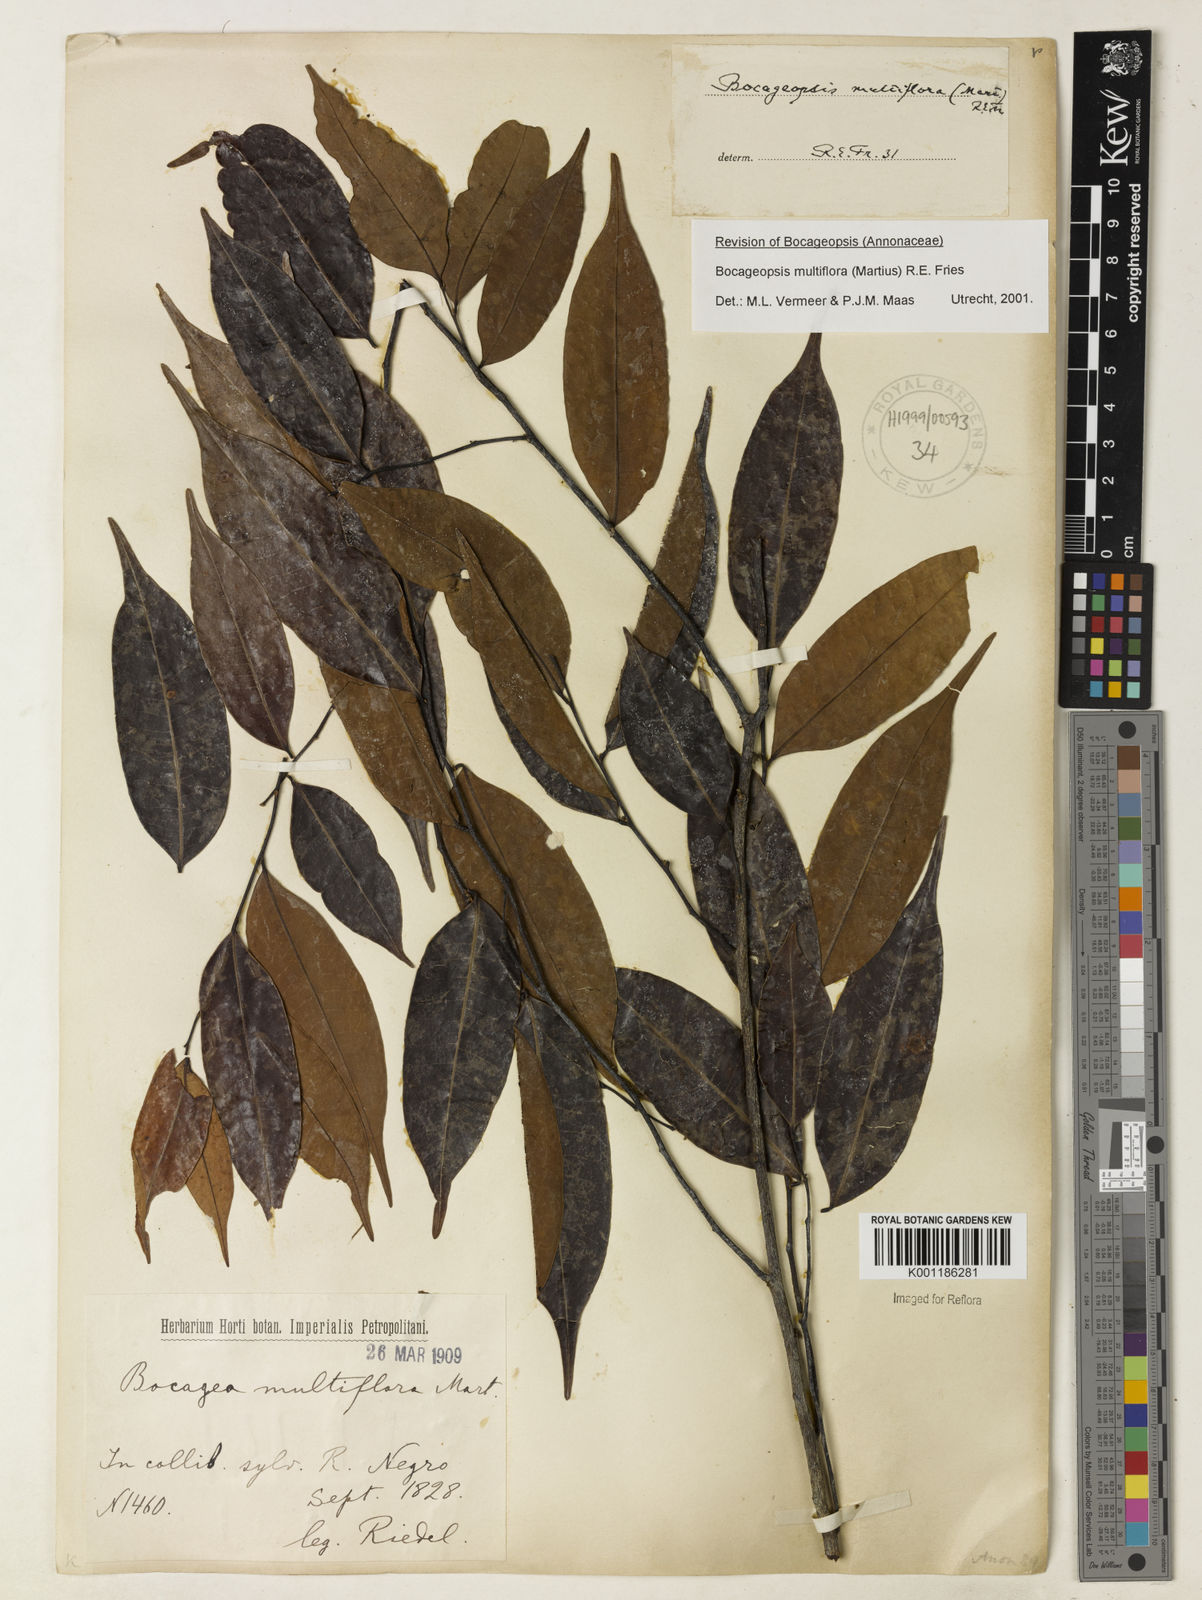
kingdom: Plantae
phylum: Tracheophyta
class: Magnoliopsida
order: Magnoliales
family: Annonaceae
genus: Bocageopsis
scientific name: Bocageopsis multiflora
